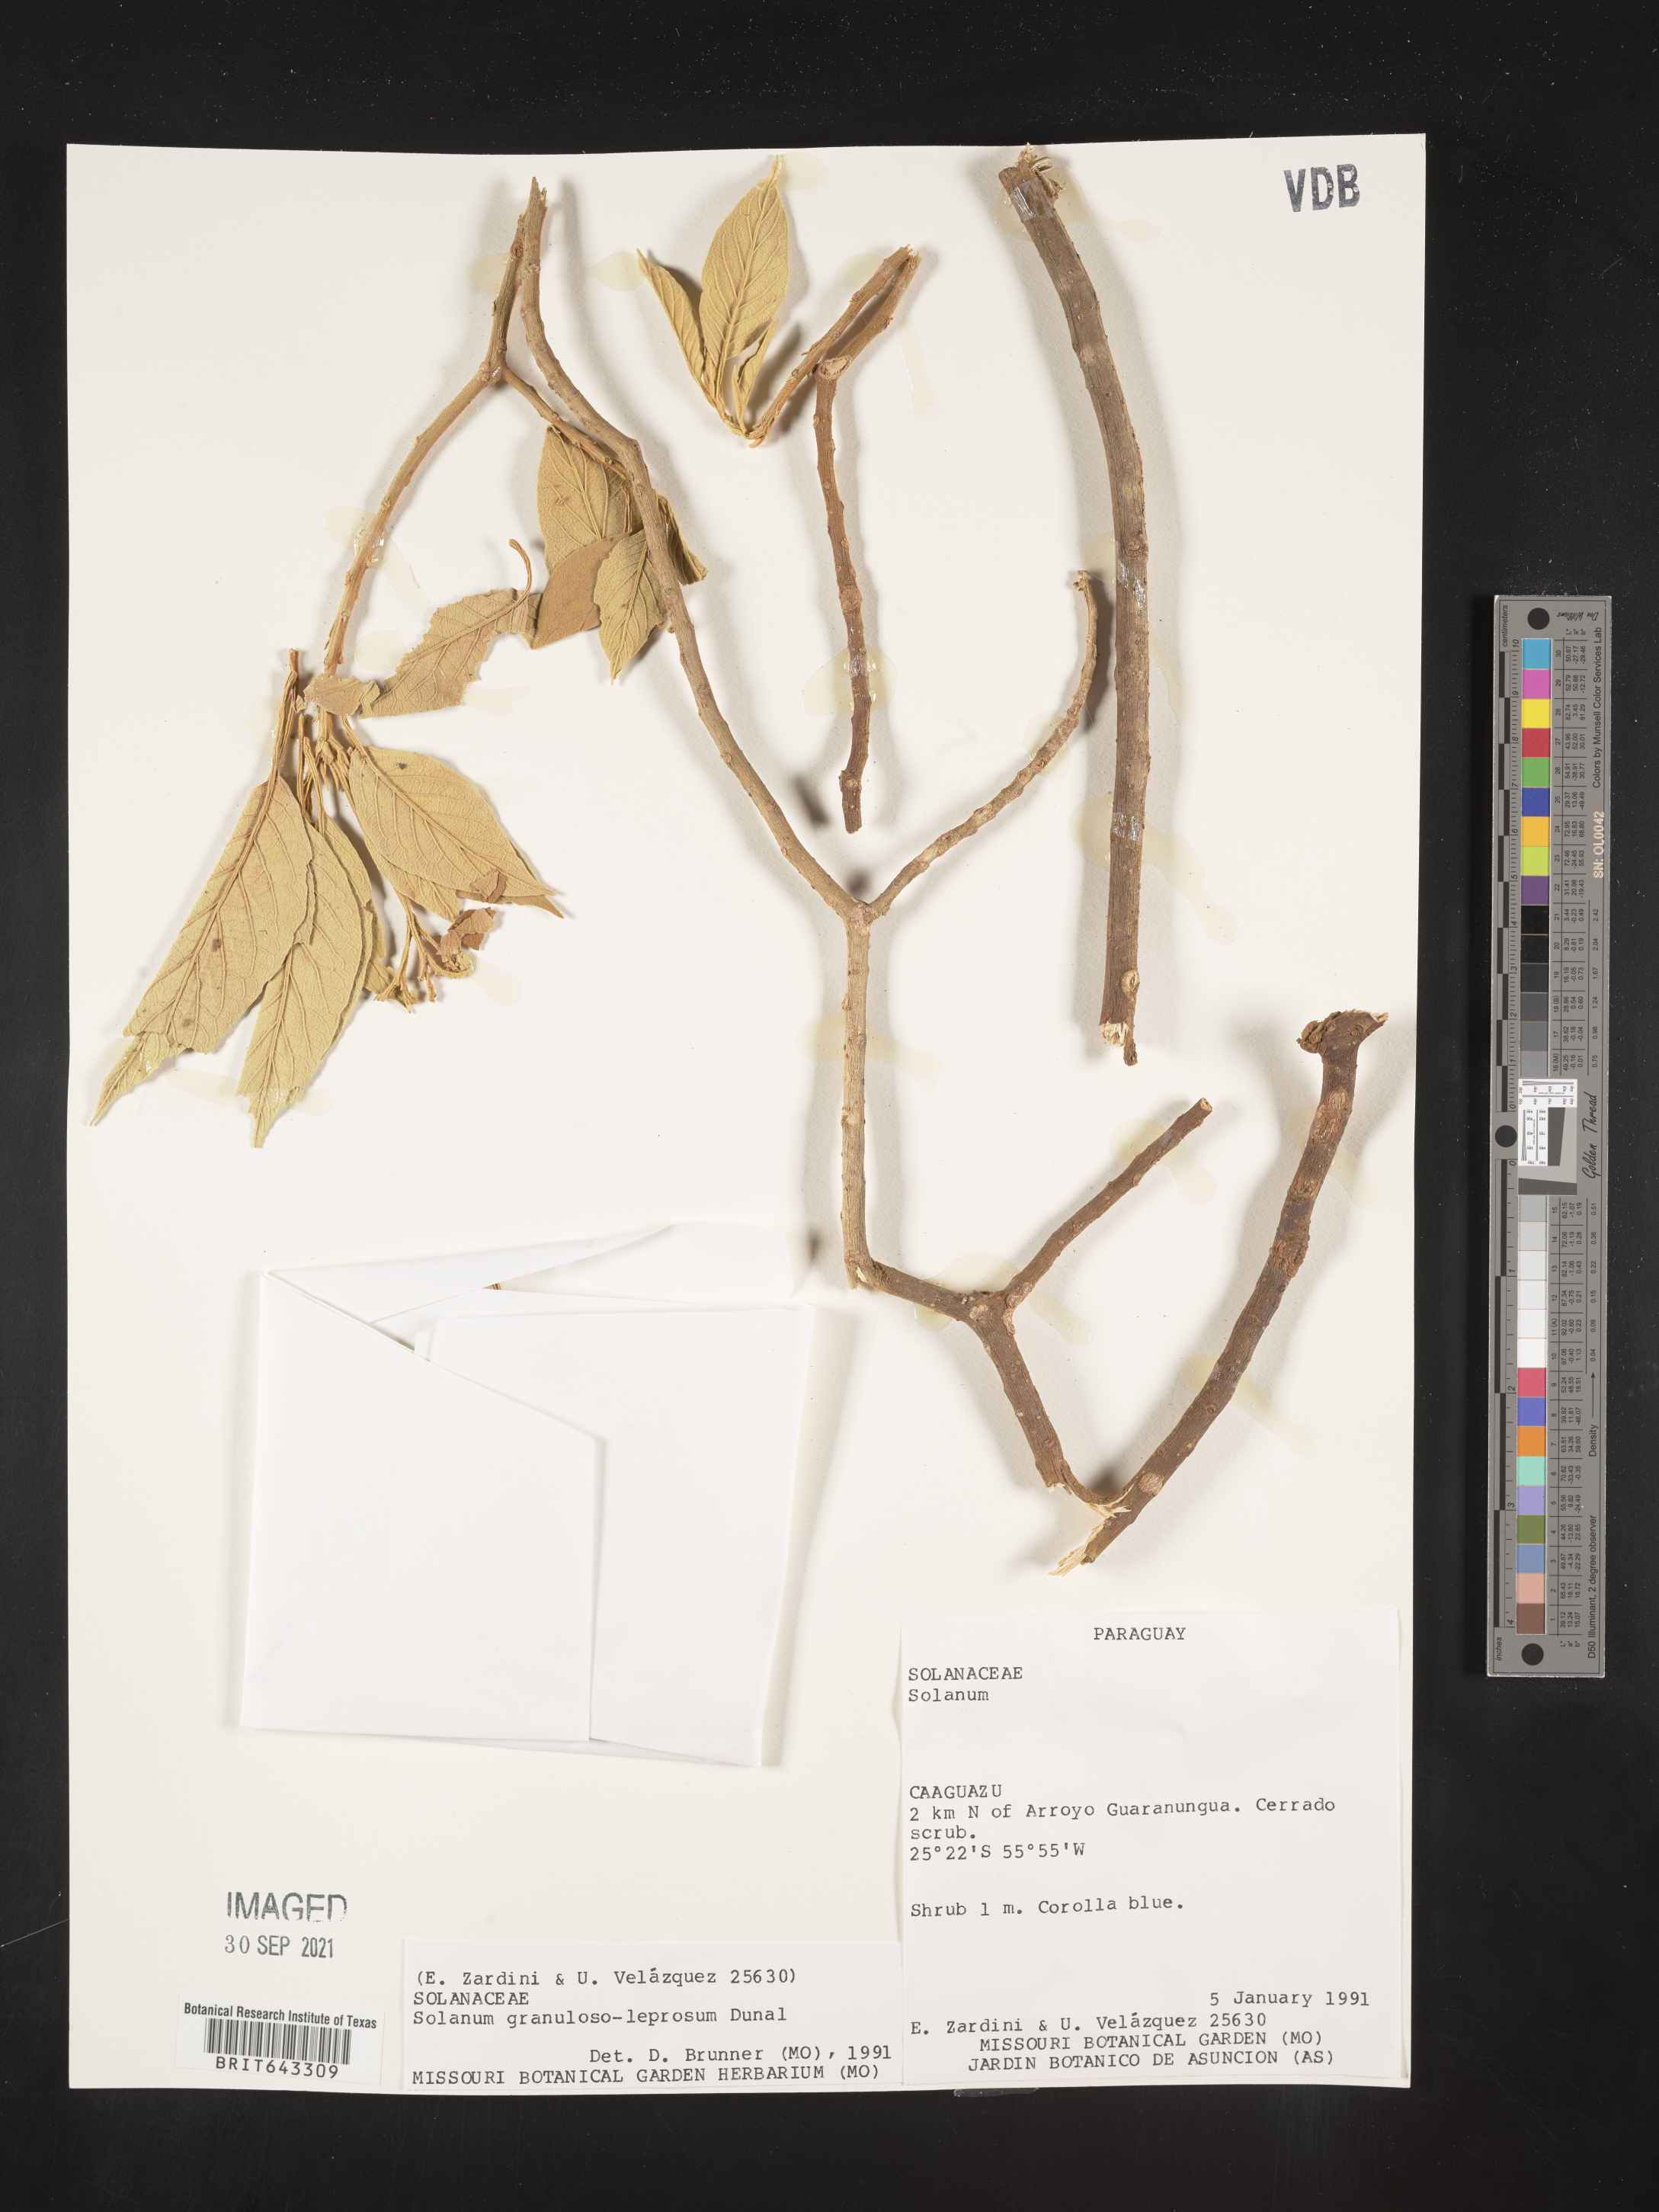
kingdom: Plantae
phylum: Tracheophyta
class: Magnoliopsida
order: Solanales
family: Solanaceae
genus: Solanum
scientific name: Solanum
